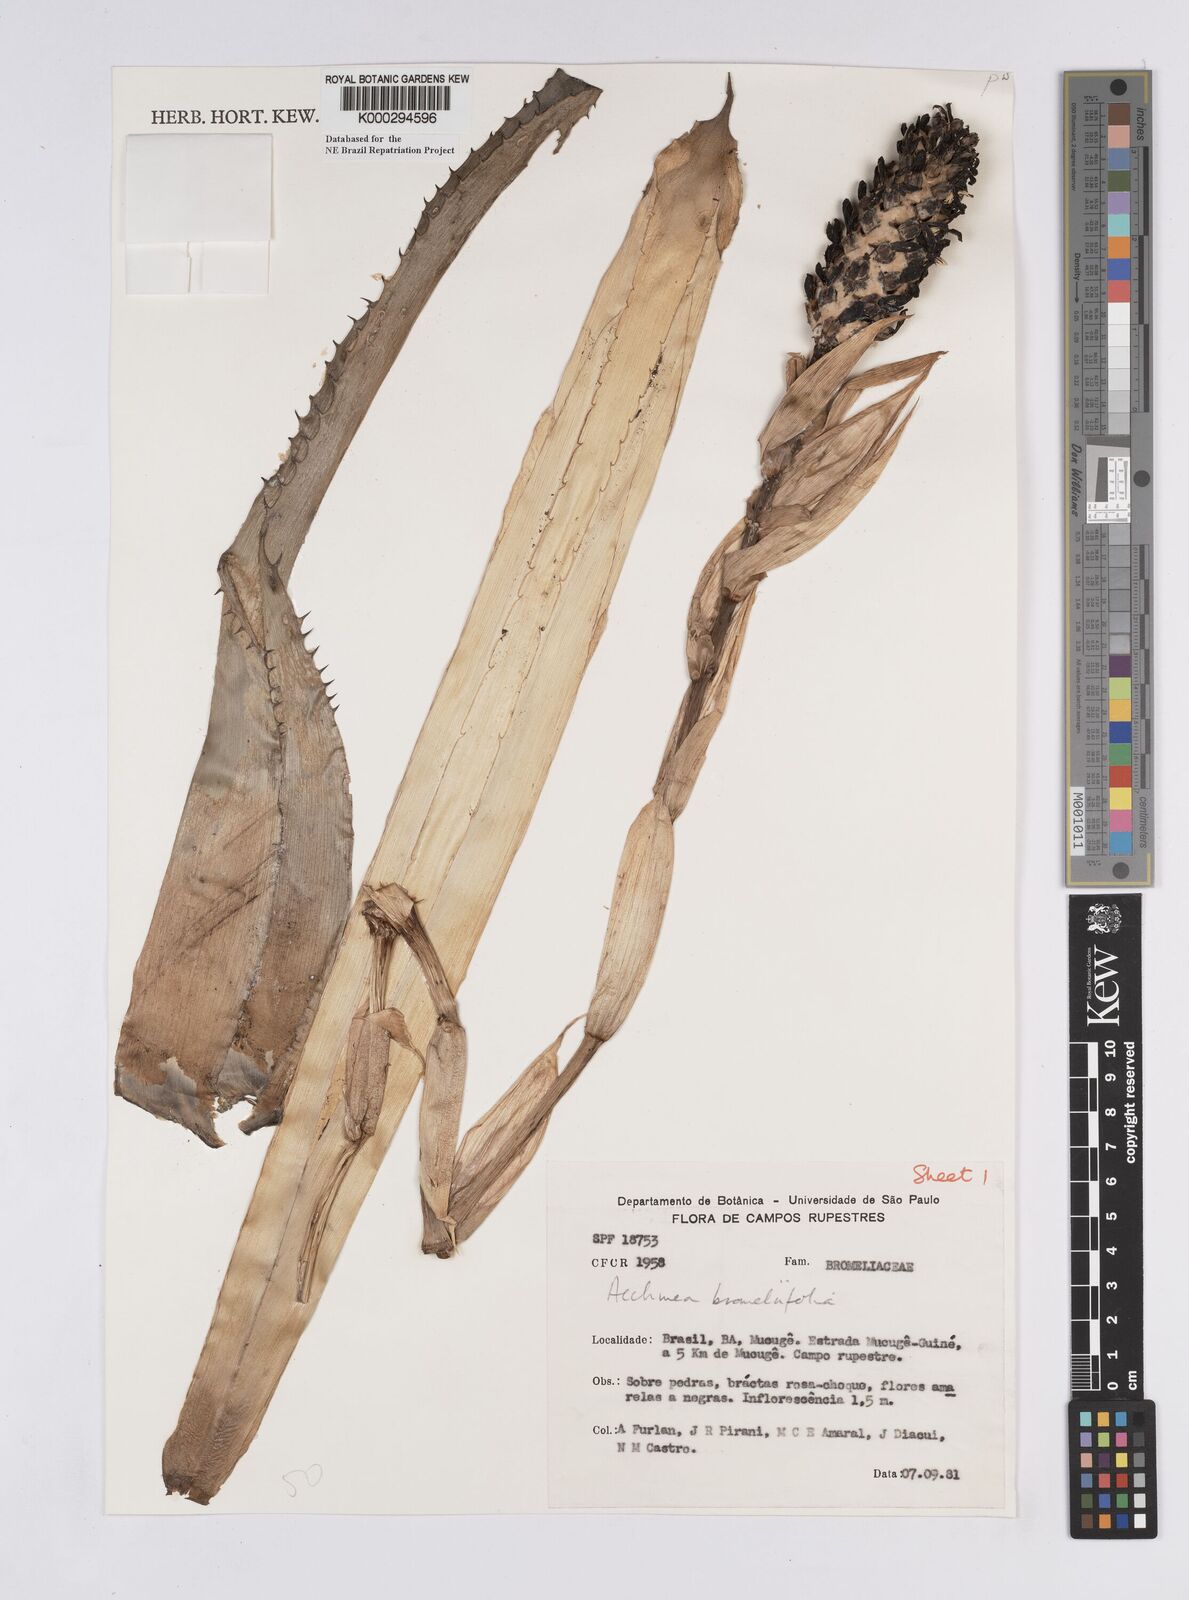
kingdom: Plantae
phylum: Tracheophyta
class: Liliopsida
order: Poales
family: Bromeliaceae
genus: Aechmea
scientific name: Aechmea
